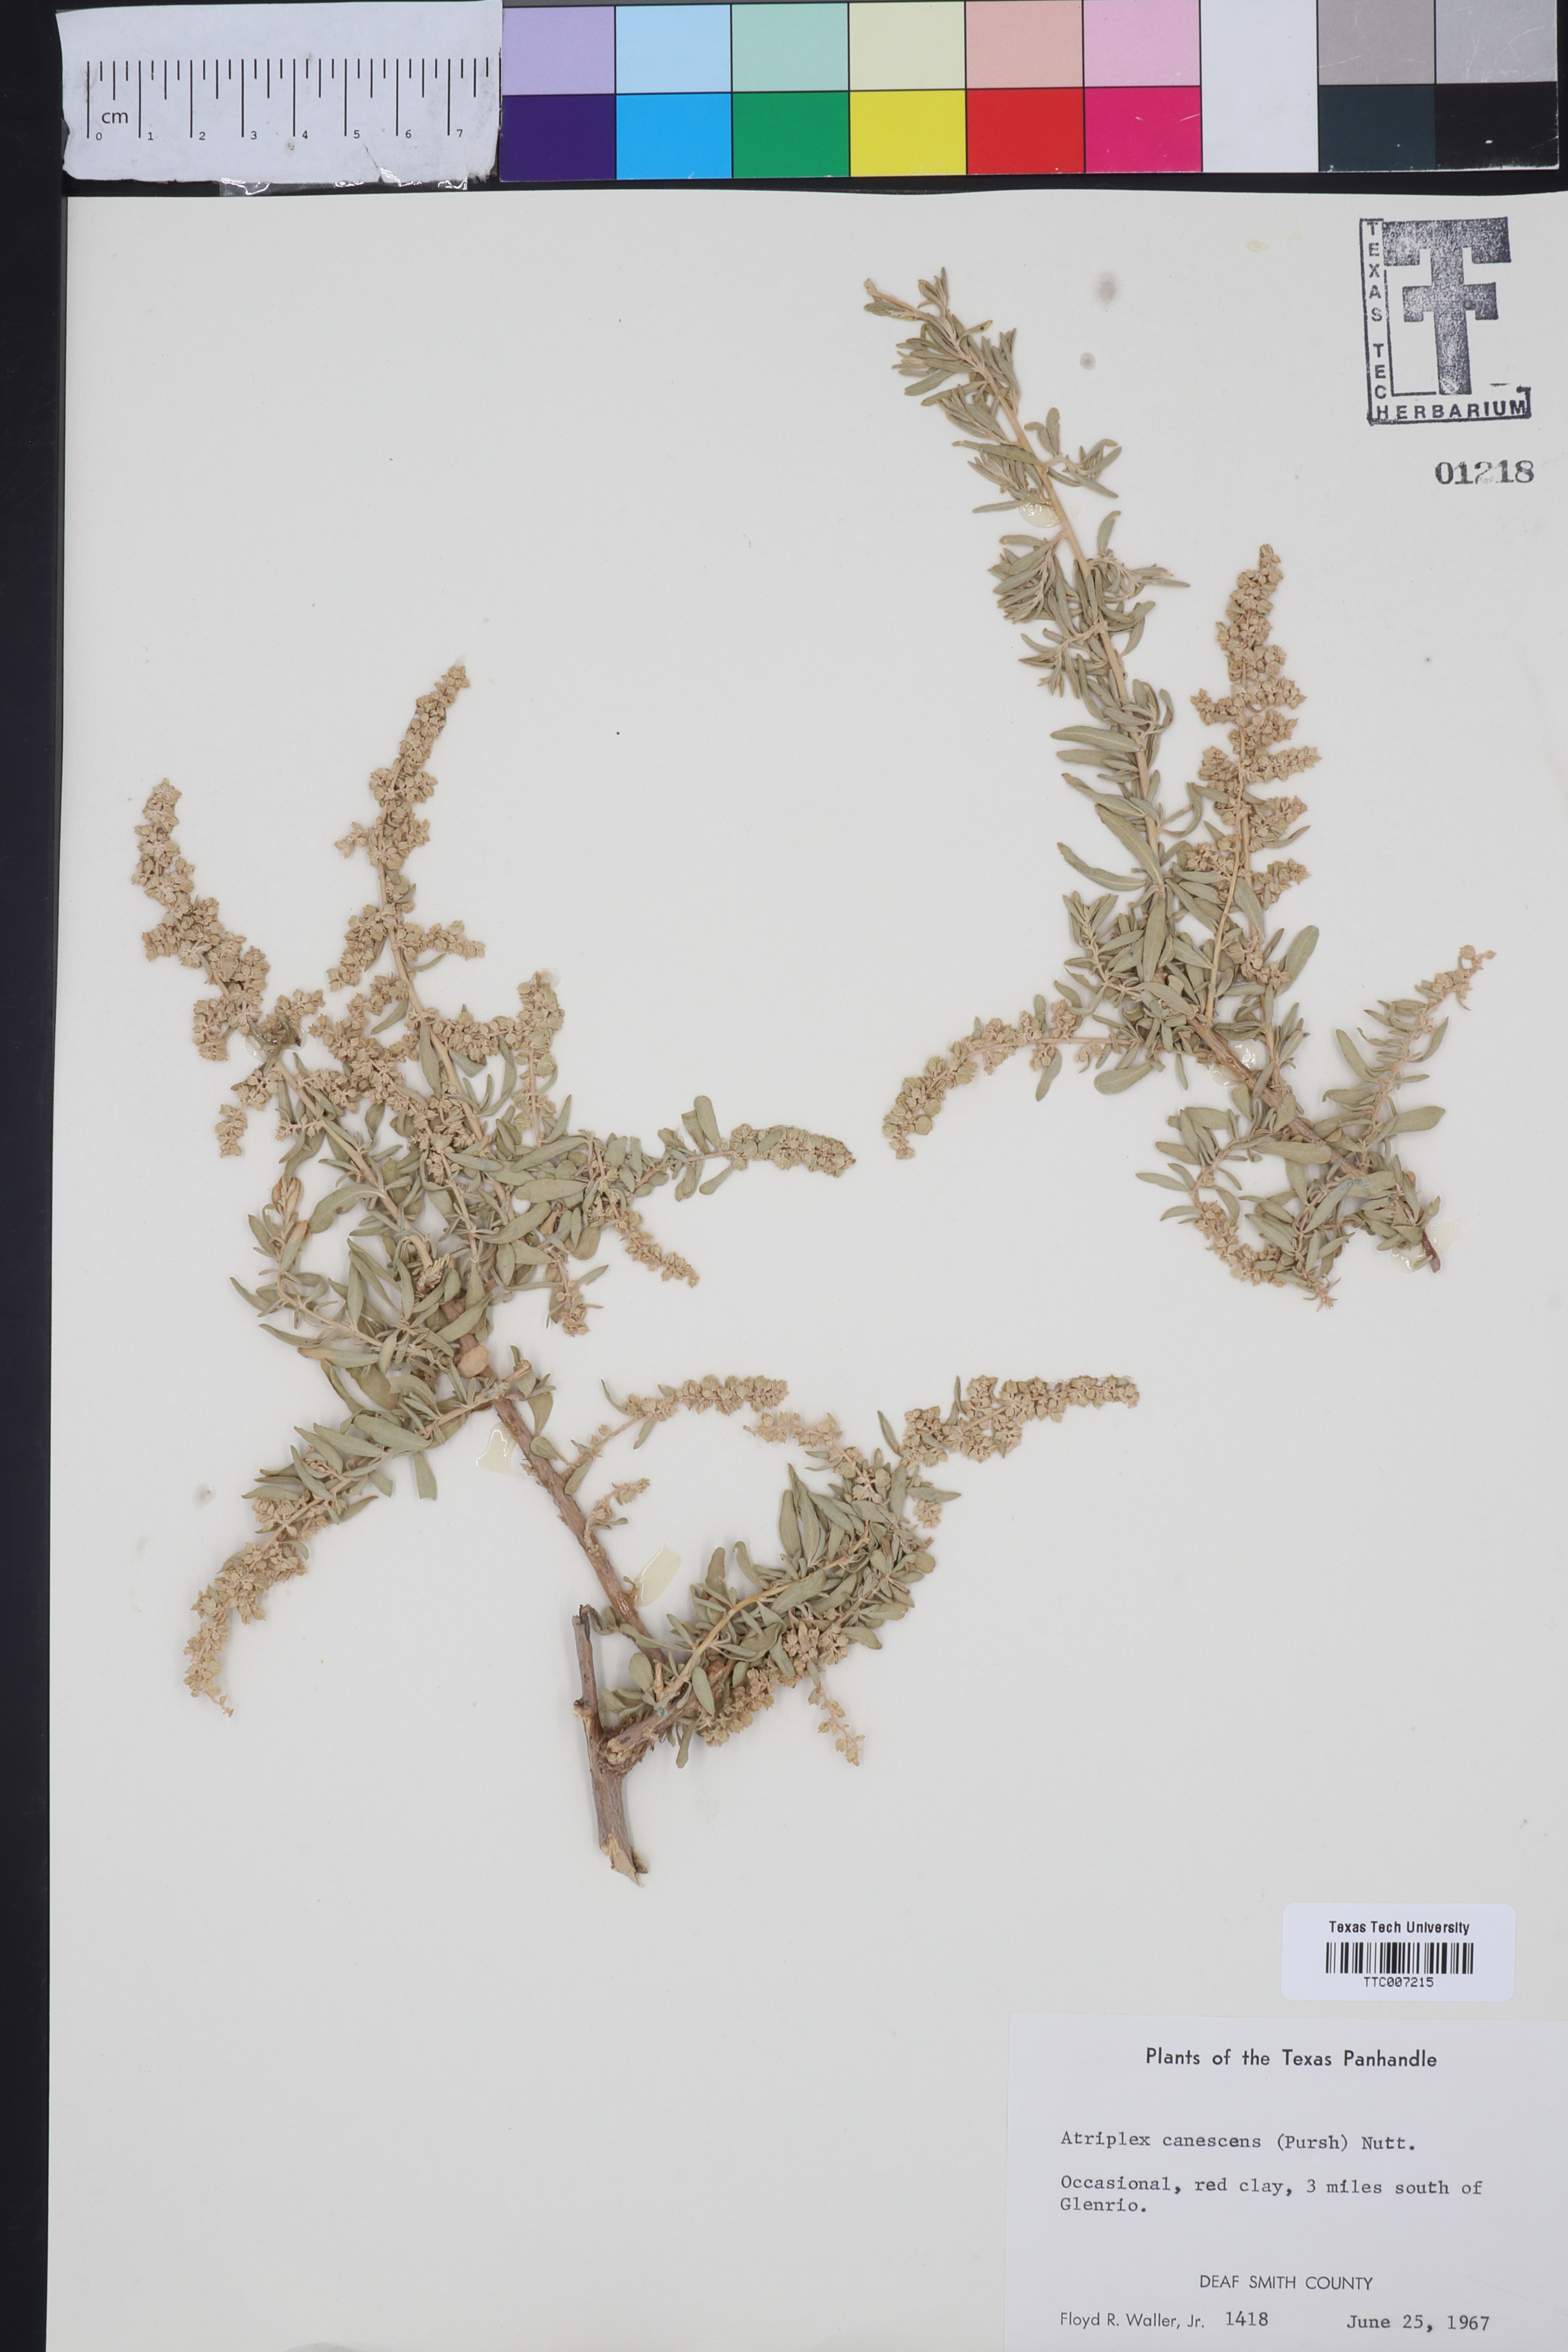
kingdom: Plantae
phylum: Tracheophyta
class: Magnoliopsida
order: Caryophyllales
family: Amaranthaceae
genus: Atriplex
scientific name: Atriplex canescens
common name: Four-wing saltbush
